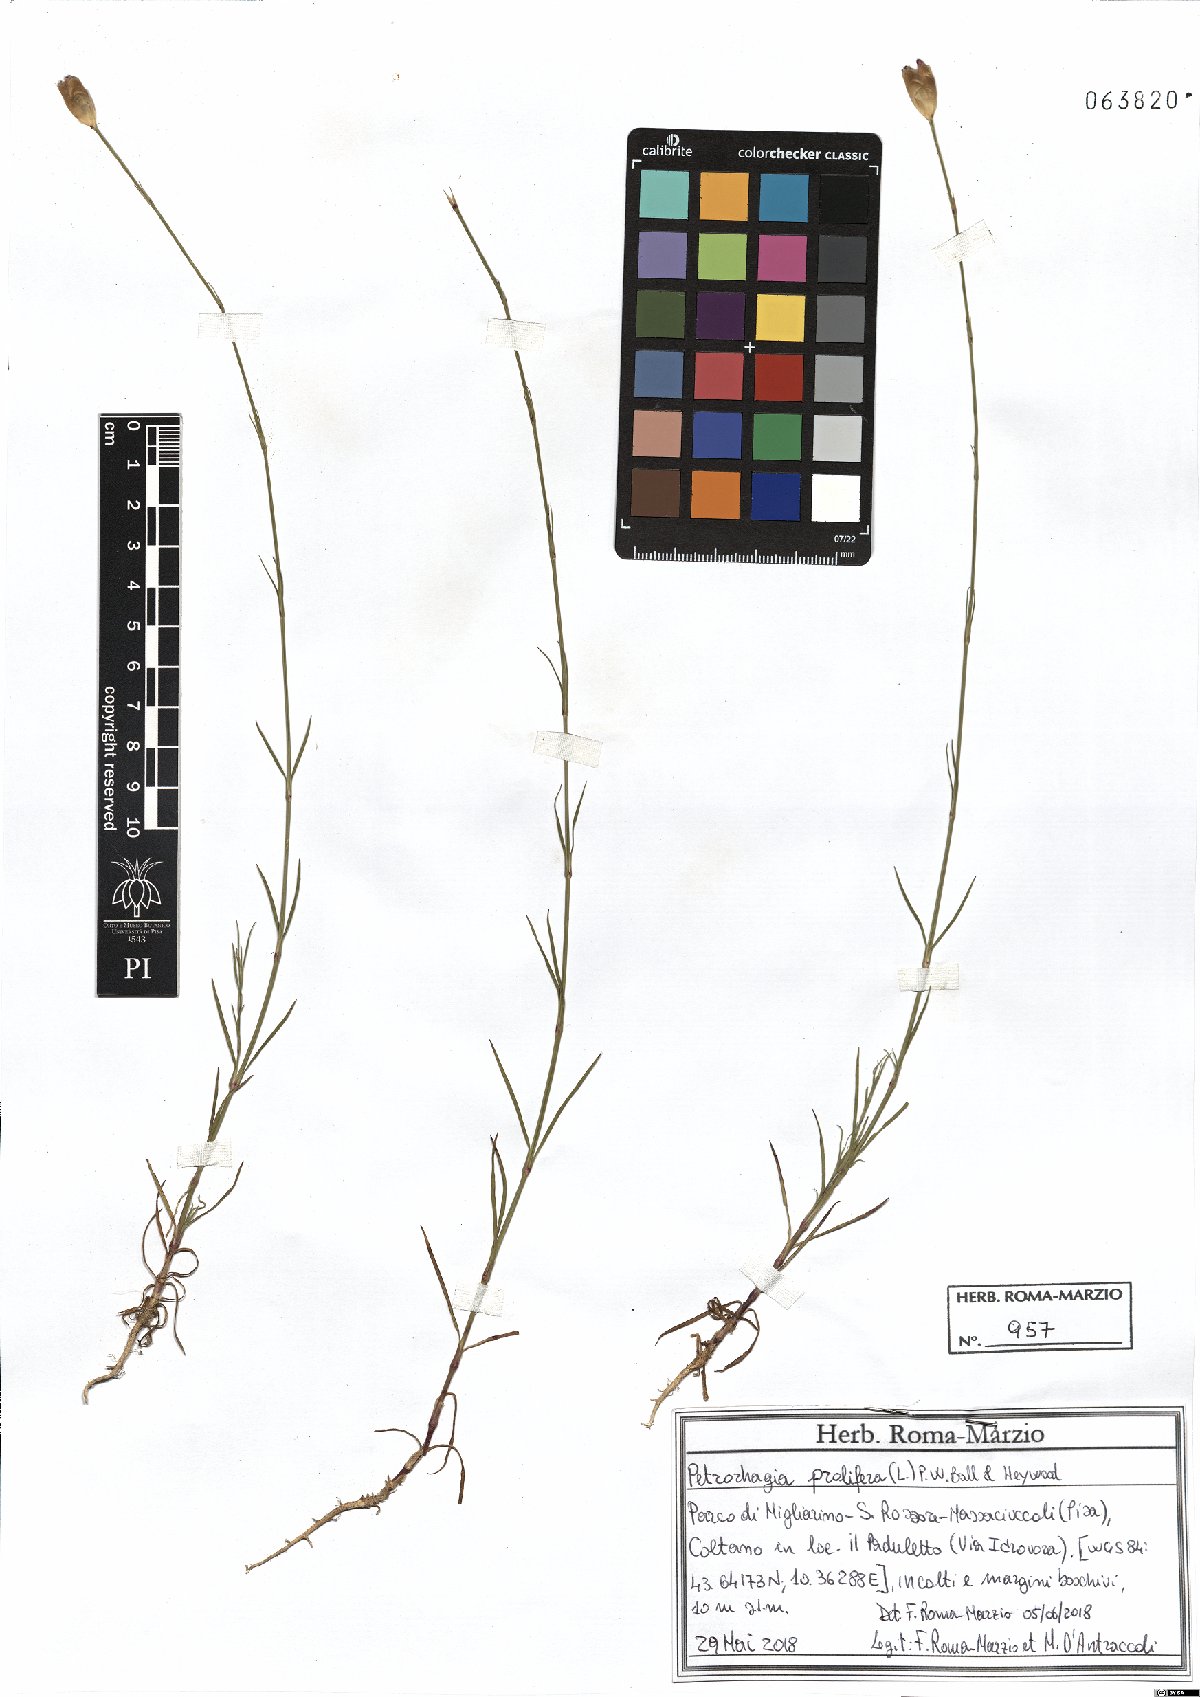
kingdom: Plantae
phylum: Tracheophyta
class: Magnoliopsida
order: Caryophyllales
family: Caryophyllaceae
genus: Petrorhagia
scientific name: Petrorhagia prolifera
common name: Proliferous pink
